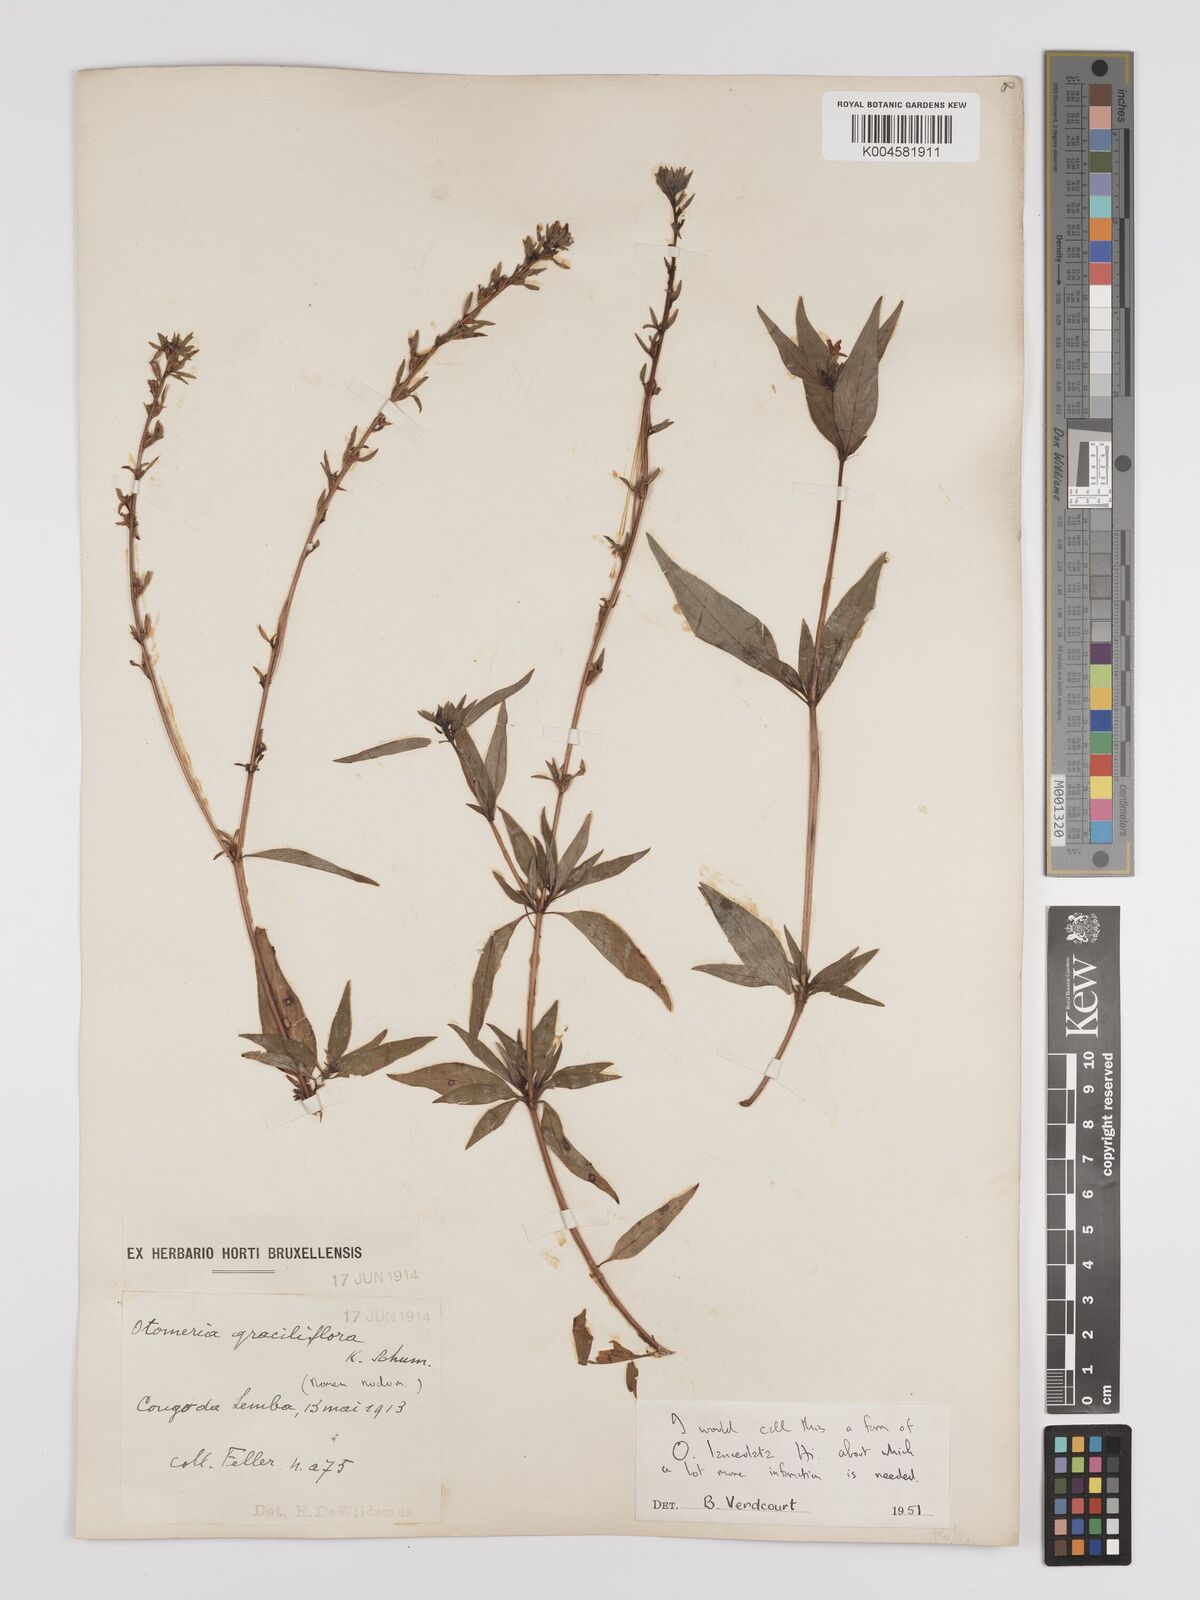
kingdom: Plantae
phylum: Tracheophyta
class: Magnoliopsida
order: Gentianales
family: Rubiaceae
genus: Otomeria
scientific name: Otomeria lanceolata
